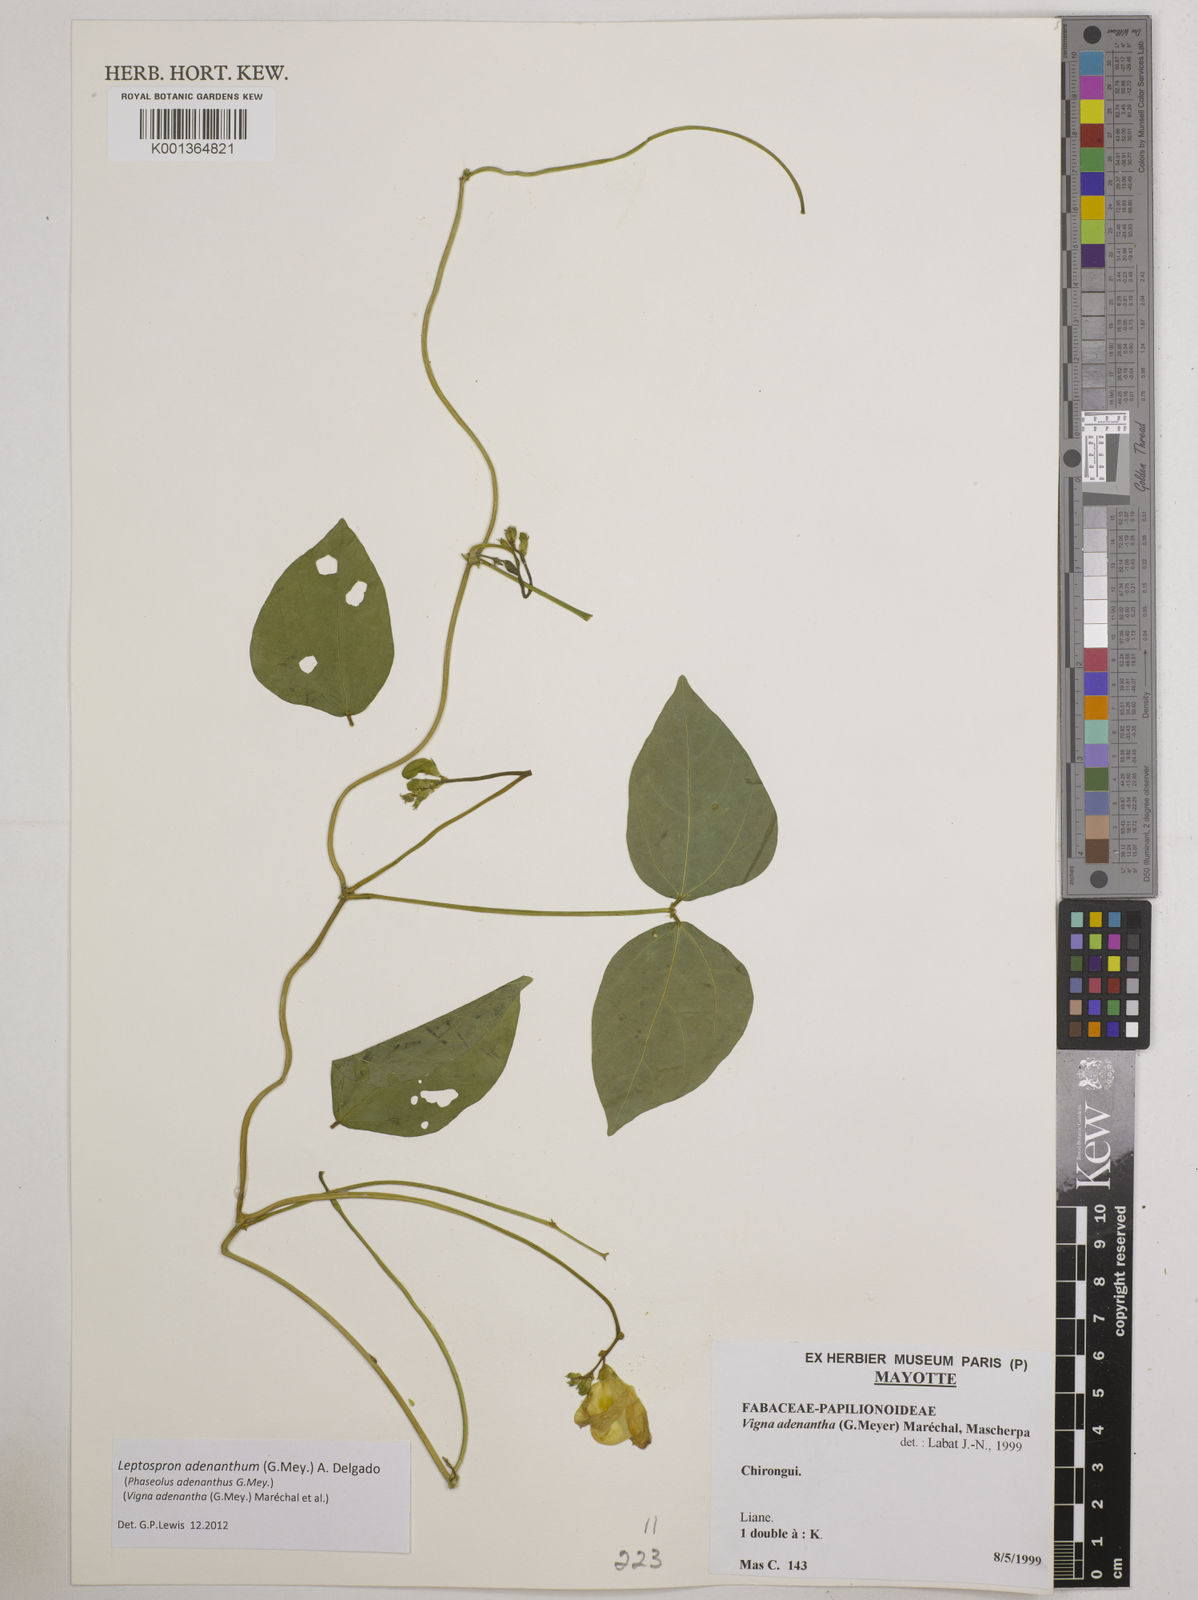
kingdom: Plantae
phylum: Tracheophyta
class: Magnoliopsida
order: Fabales
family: Fabaceae
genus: Leptospron
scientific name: Leptospron adenanthum
